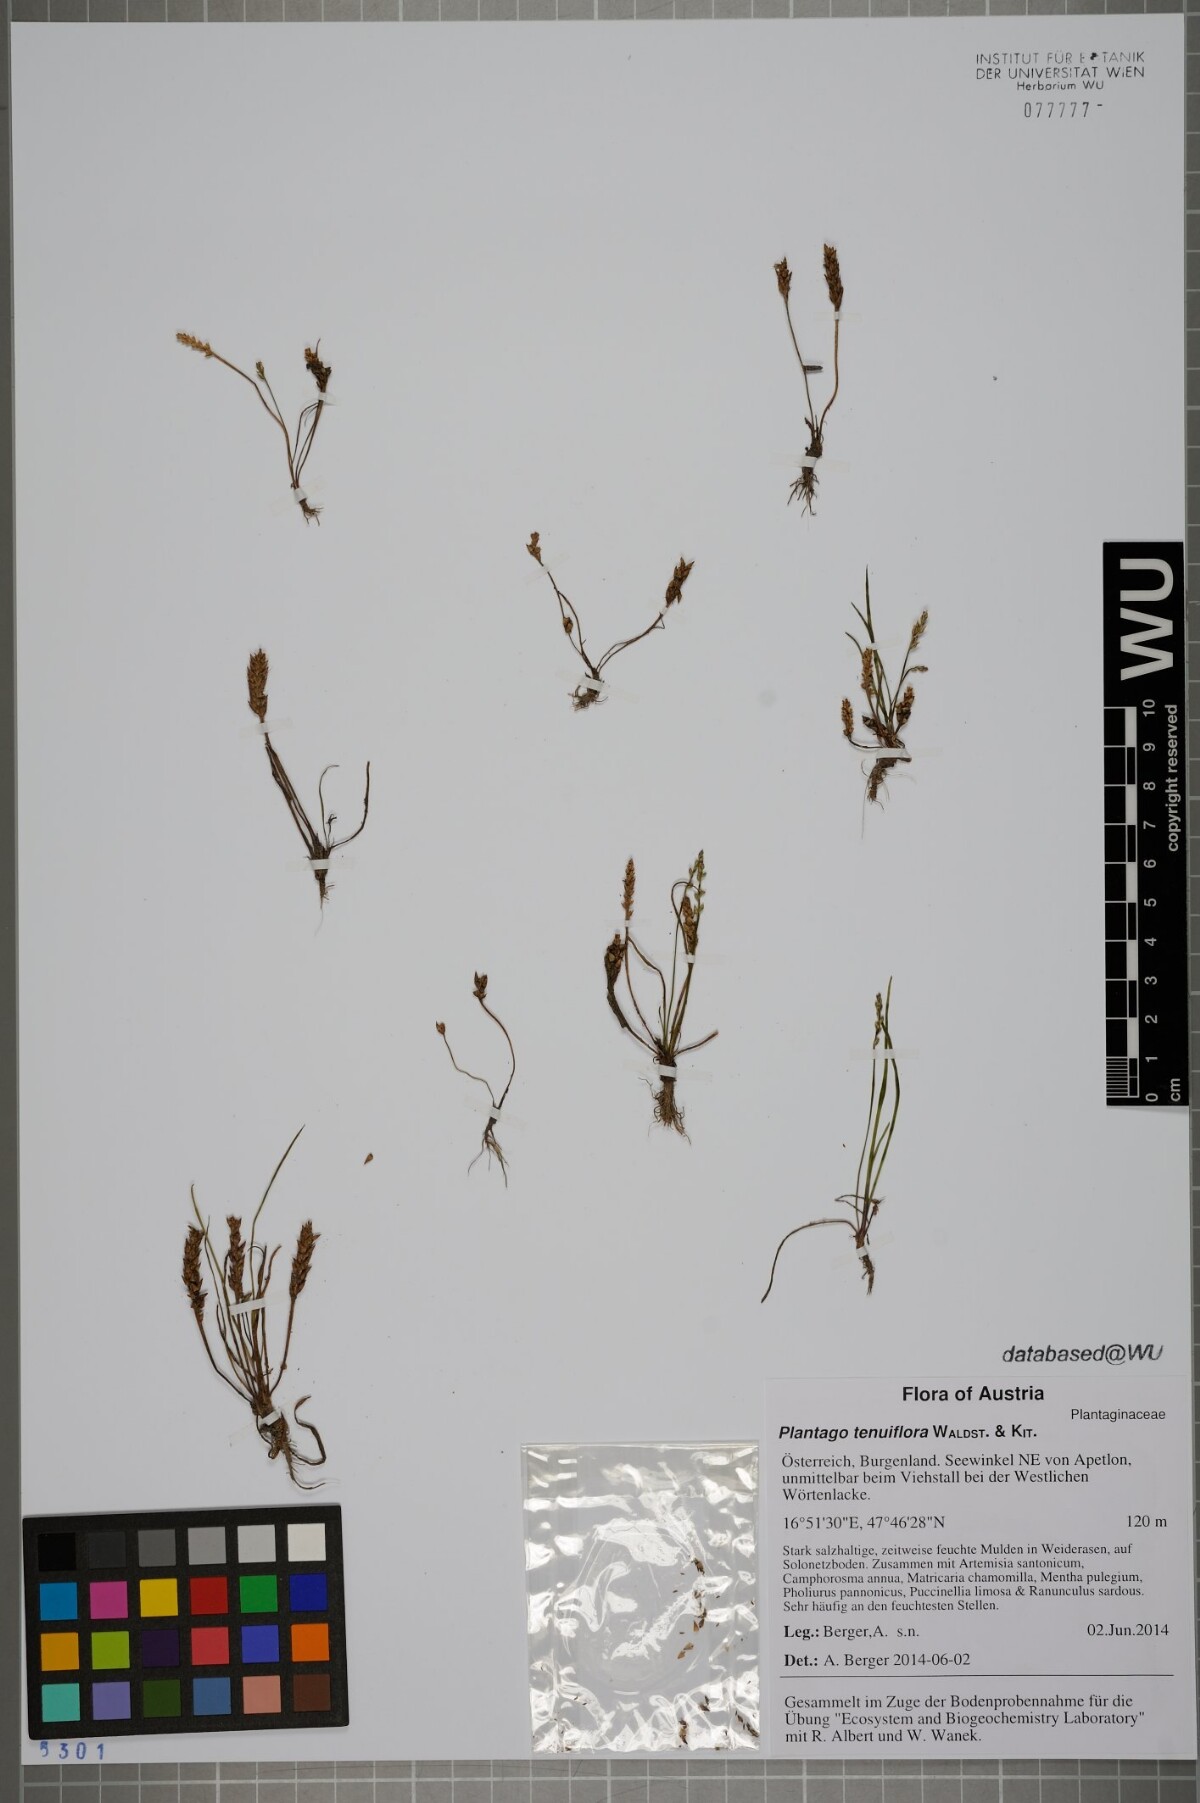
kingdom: Plantae
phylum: Tracheophyta
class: Magnoliopsida
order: Lamiales
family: Plantaginaceae
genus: Plantago
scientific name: Plantago tenuiflora
